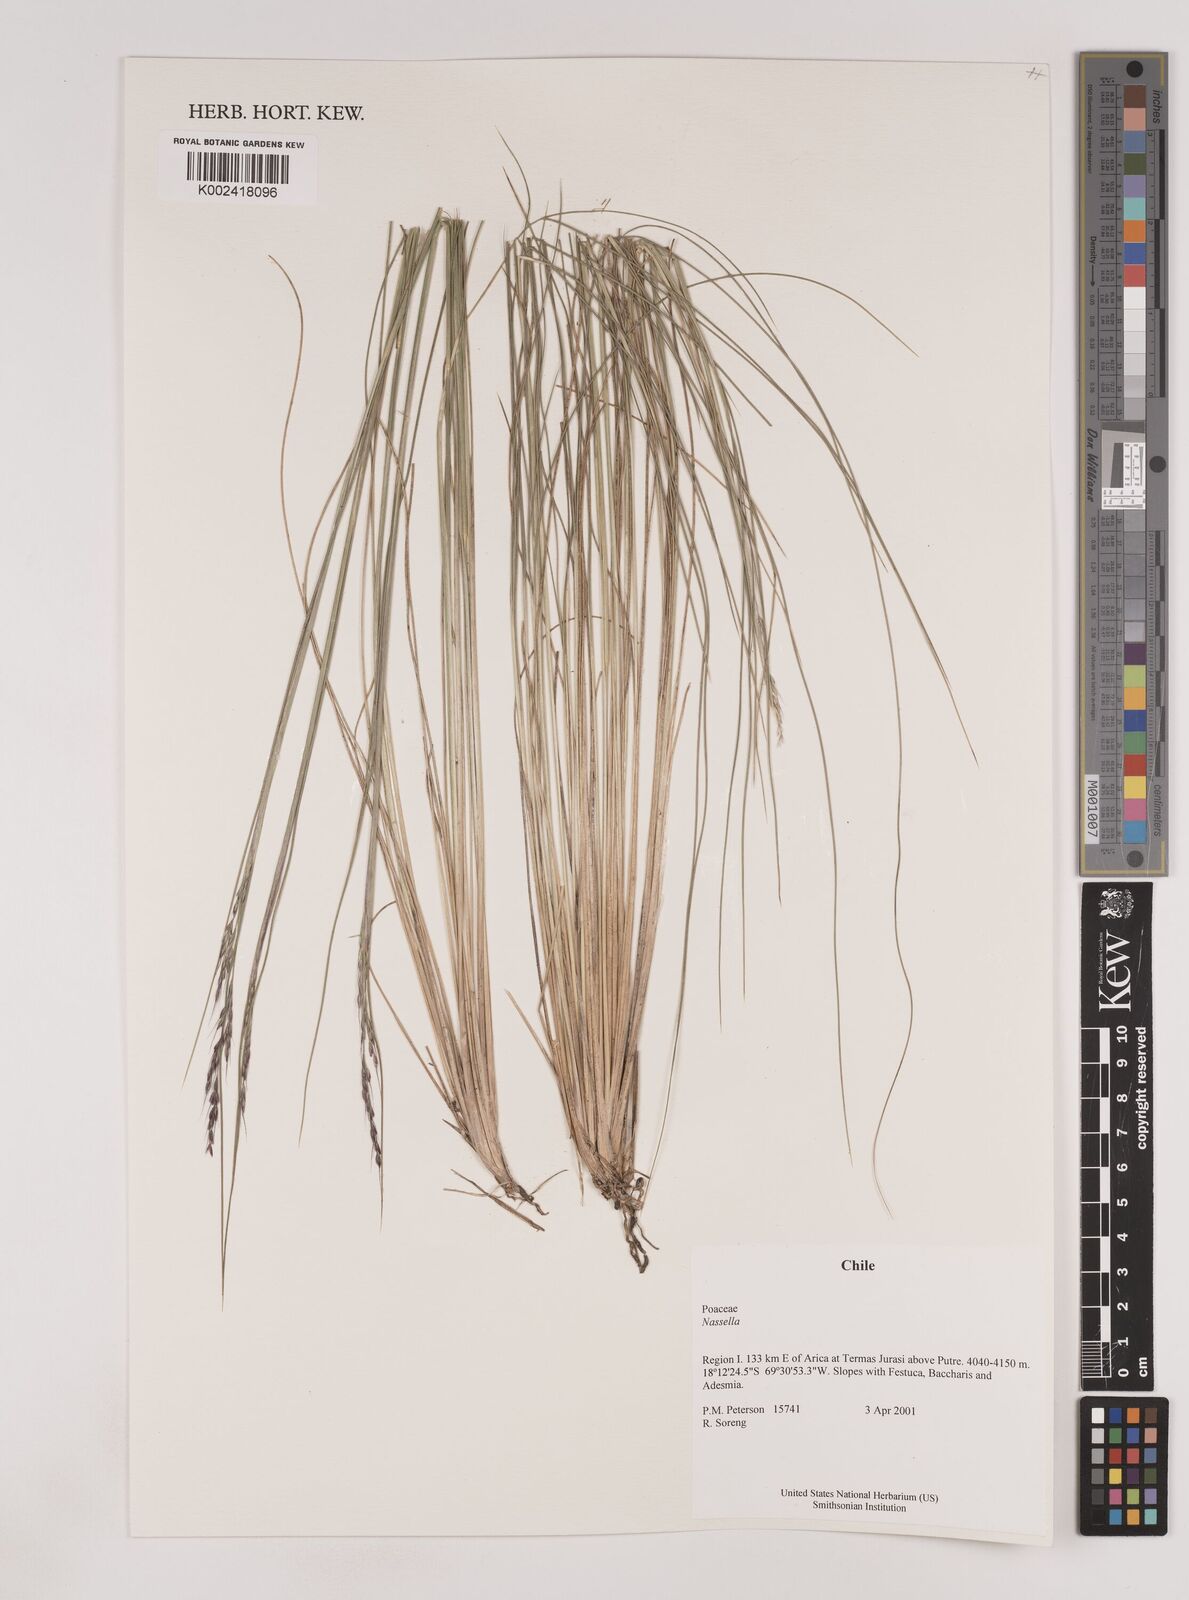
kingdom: Plantae
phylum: Tracheophyta
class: Liliopsida
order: Poales
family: Poaceae
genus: Nassella
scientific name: Nassella
